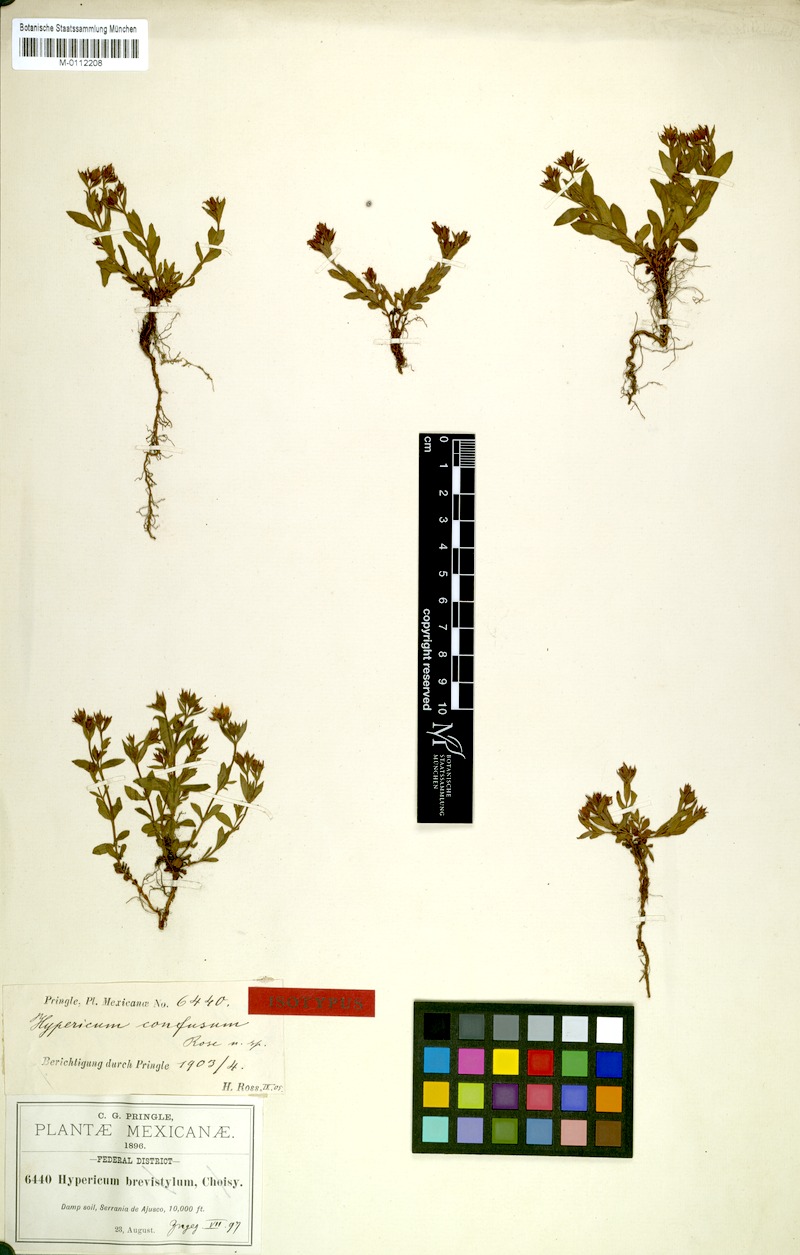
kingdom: Plantae
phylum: Tracheophyta
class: Magnoliopsida
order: Malpighiales
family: Hypericaceae
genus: Hypericum
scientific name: Hypericum pumilum
